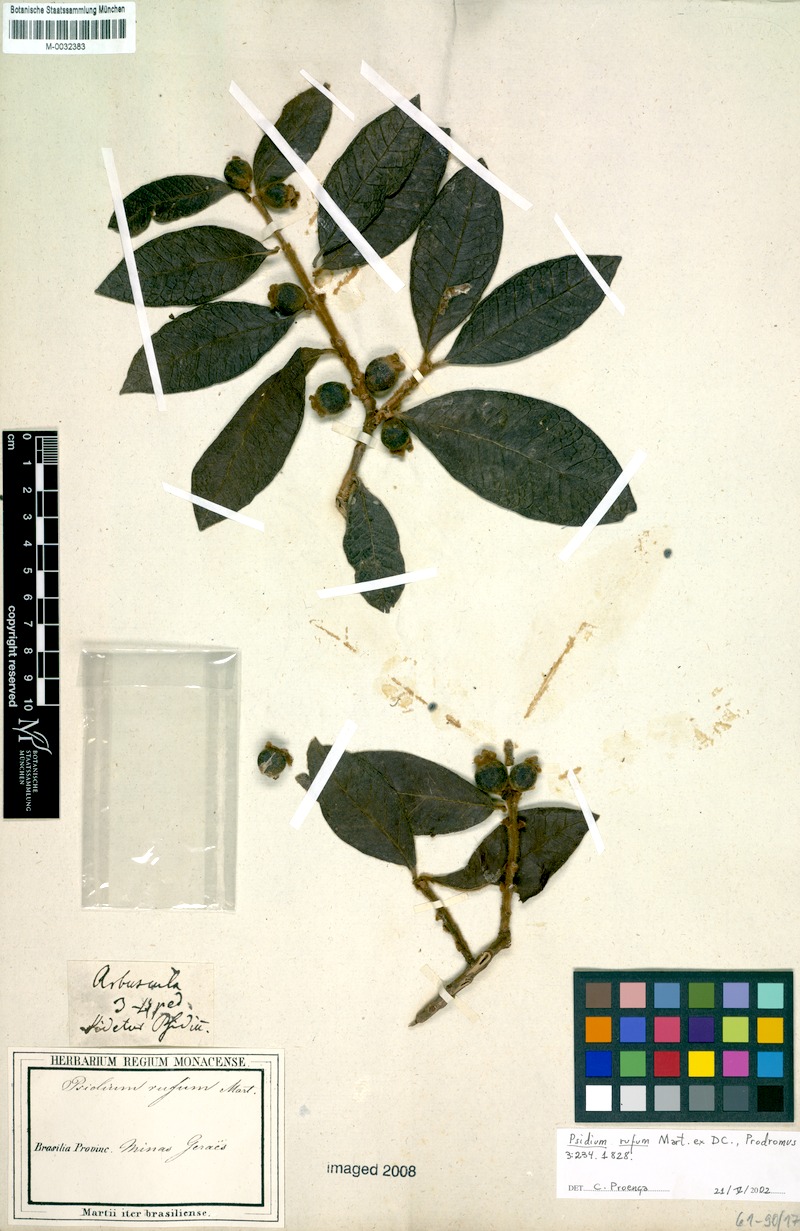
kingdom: Plantae
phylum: Tracheophyta
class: Magnoliopsida
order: Myrtales
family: Myrtaceae
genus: Psidium
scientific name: Psidium rufum
